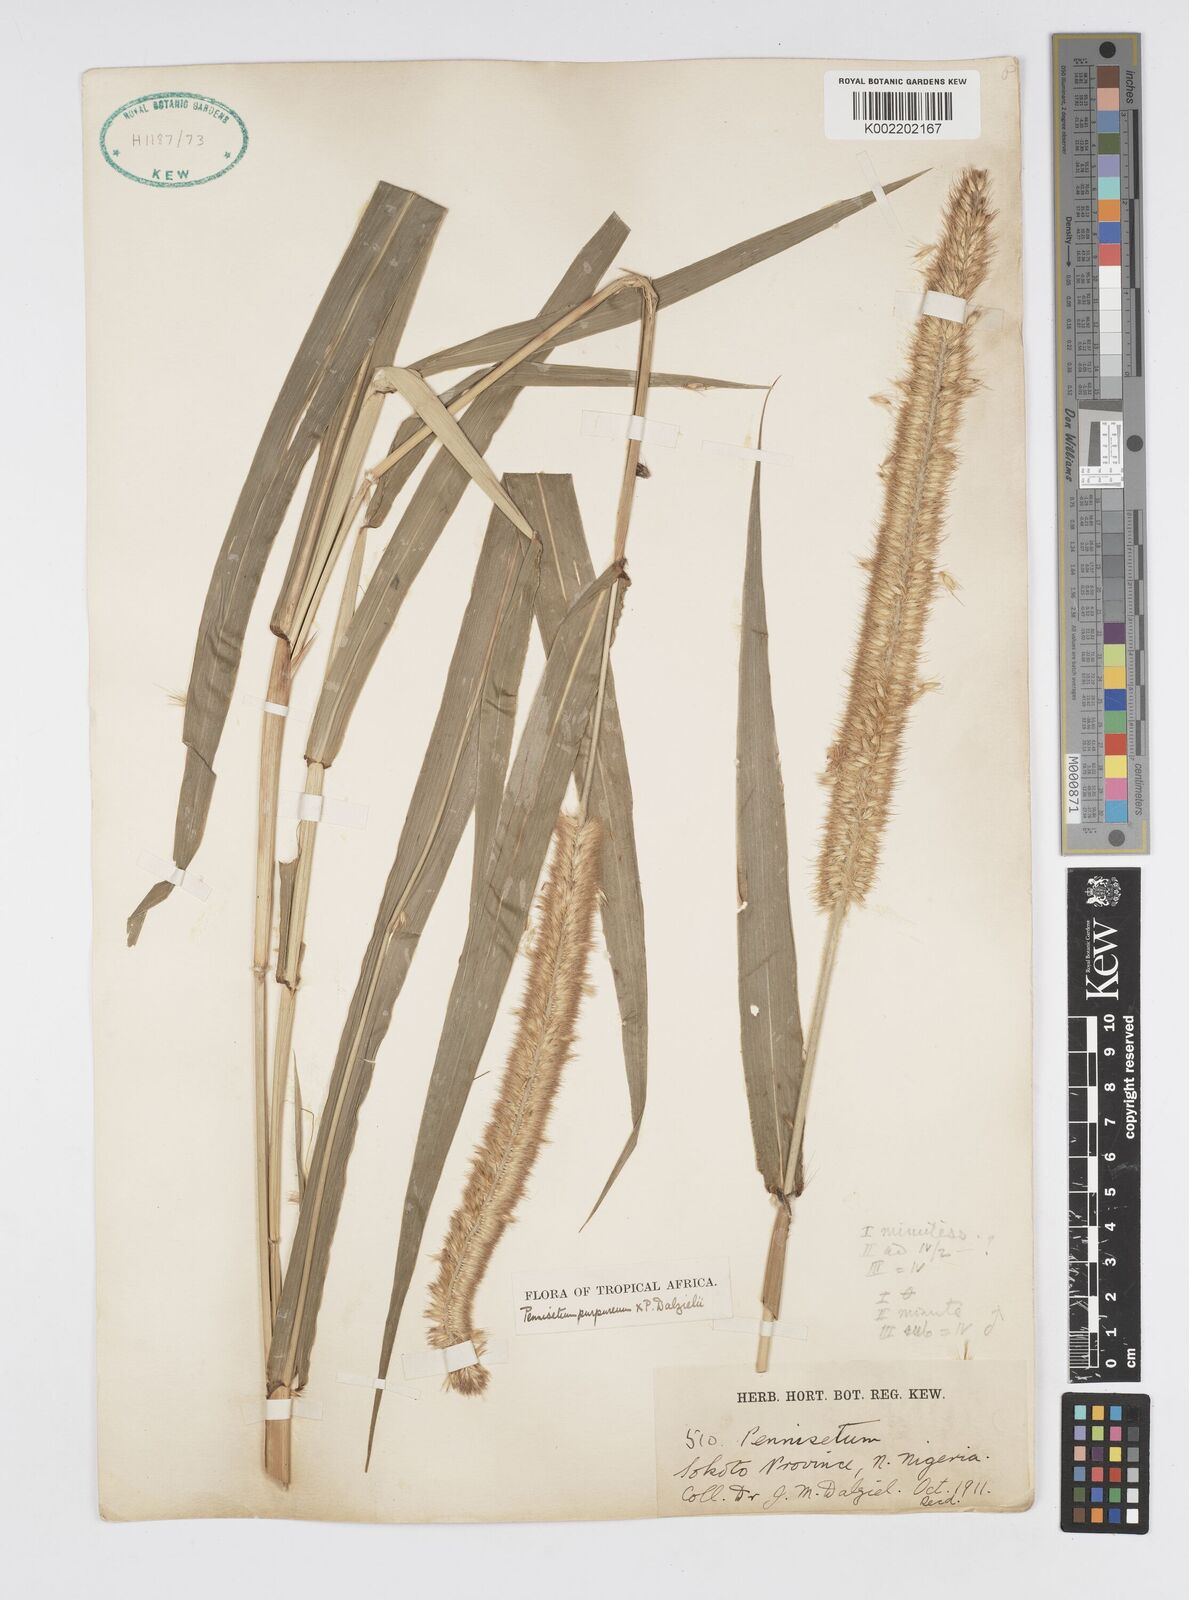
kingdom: Plantae
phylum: Tracheophyta
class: Liliopsida
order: Poales
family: Poaceae
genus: Cenchrus
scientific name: Cenchrus purpureus
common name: Elephant grass
